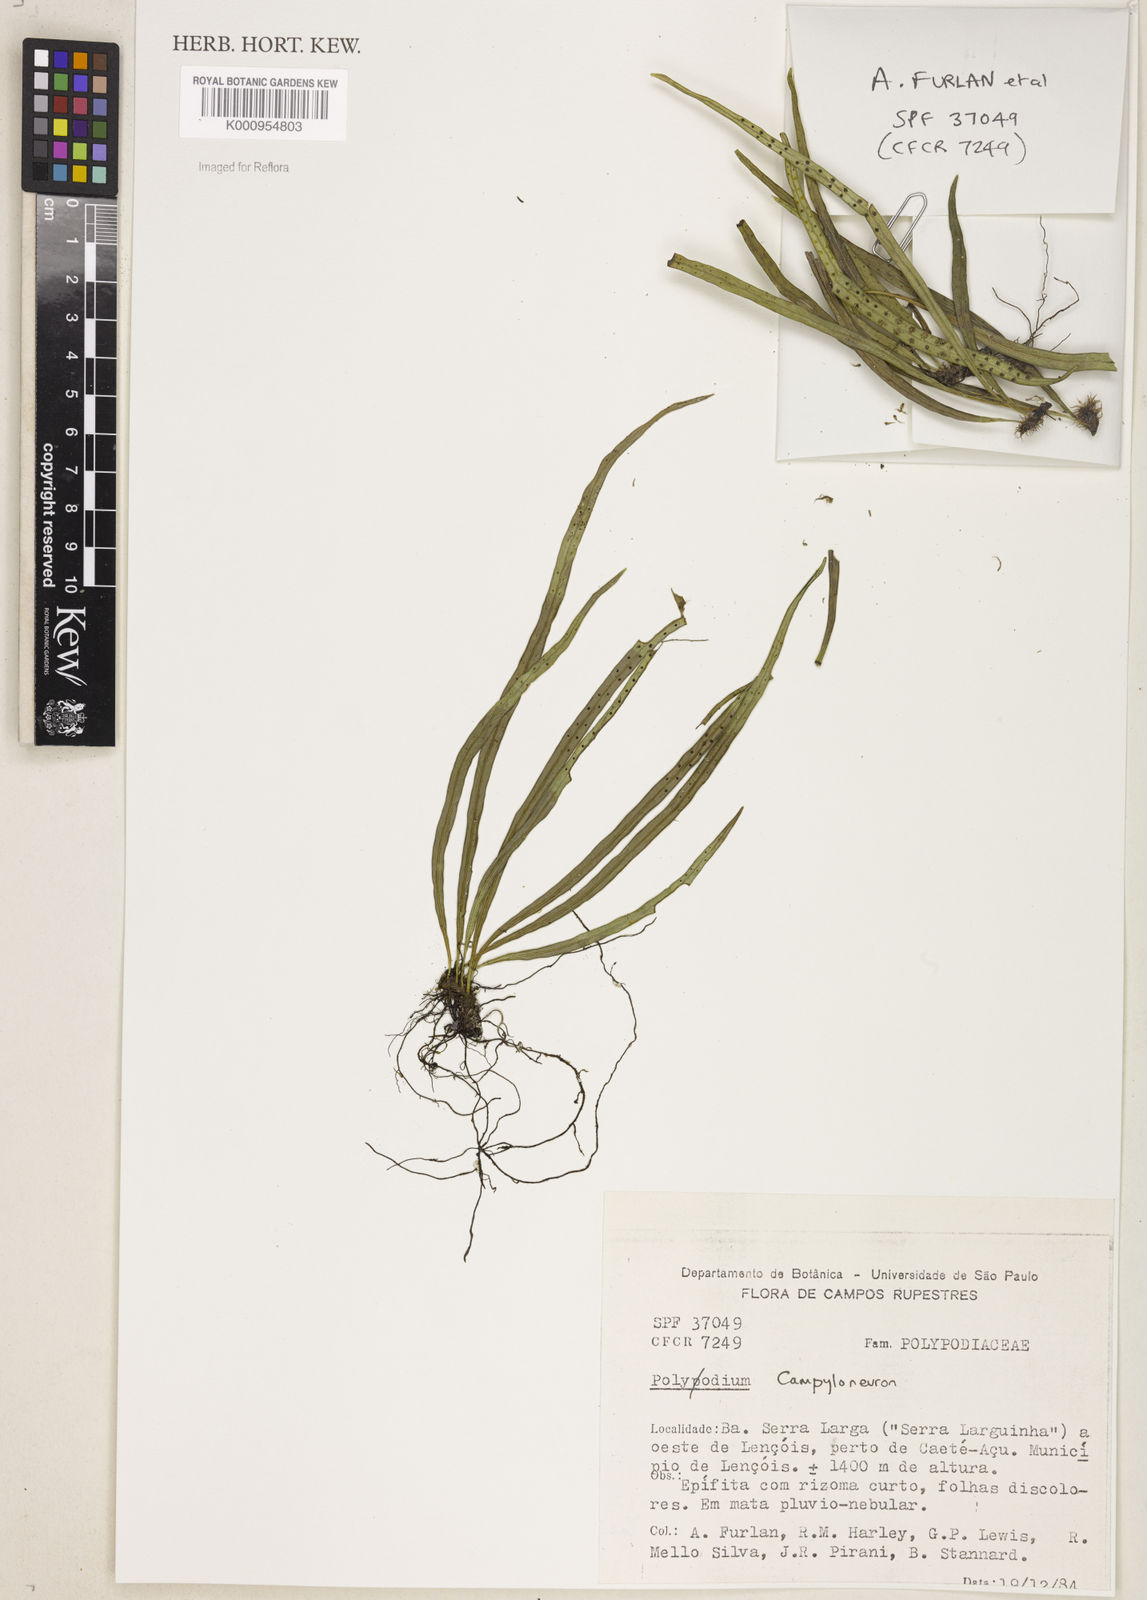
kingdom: Plantae
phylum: Tracheophyta
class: Polypodiopsida
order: Polypodiales
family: Polypodiaceae
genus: Campyloneurum
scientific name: Campyloneurum
